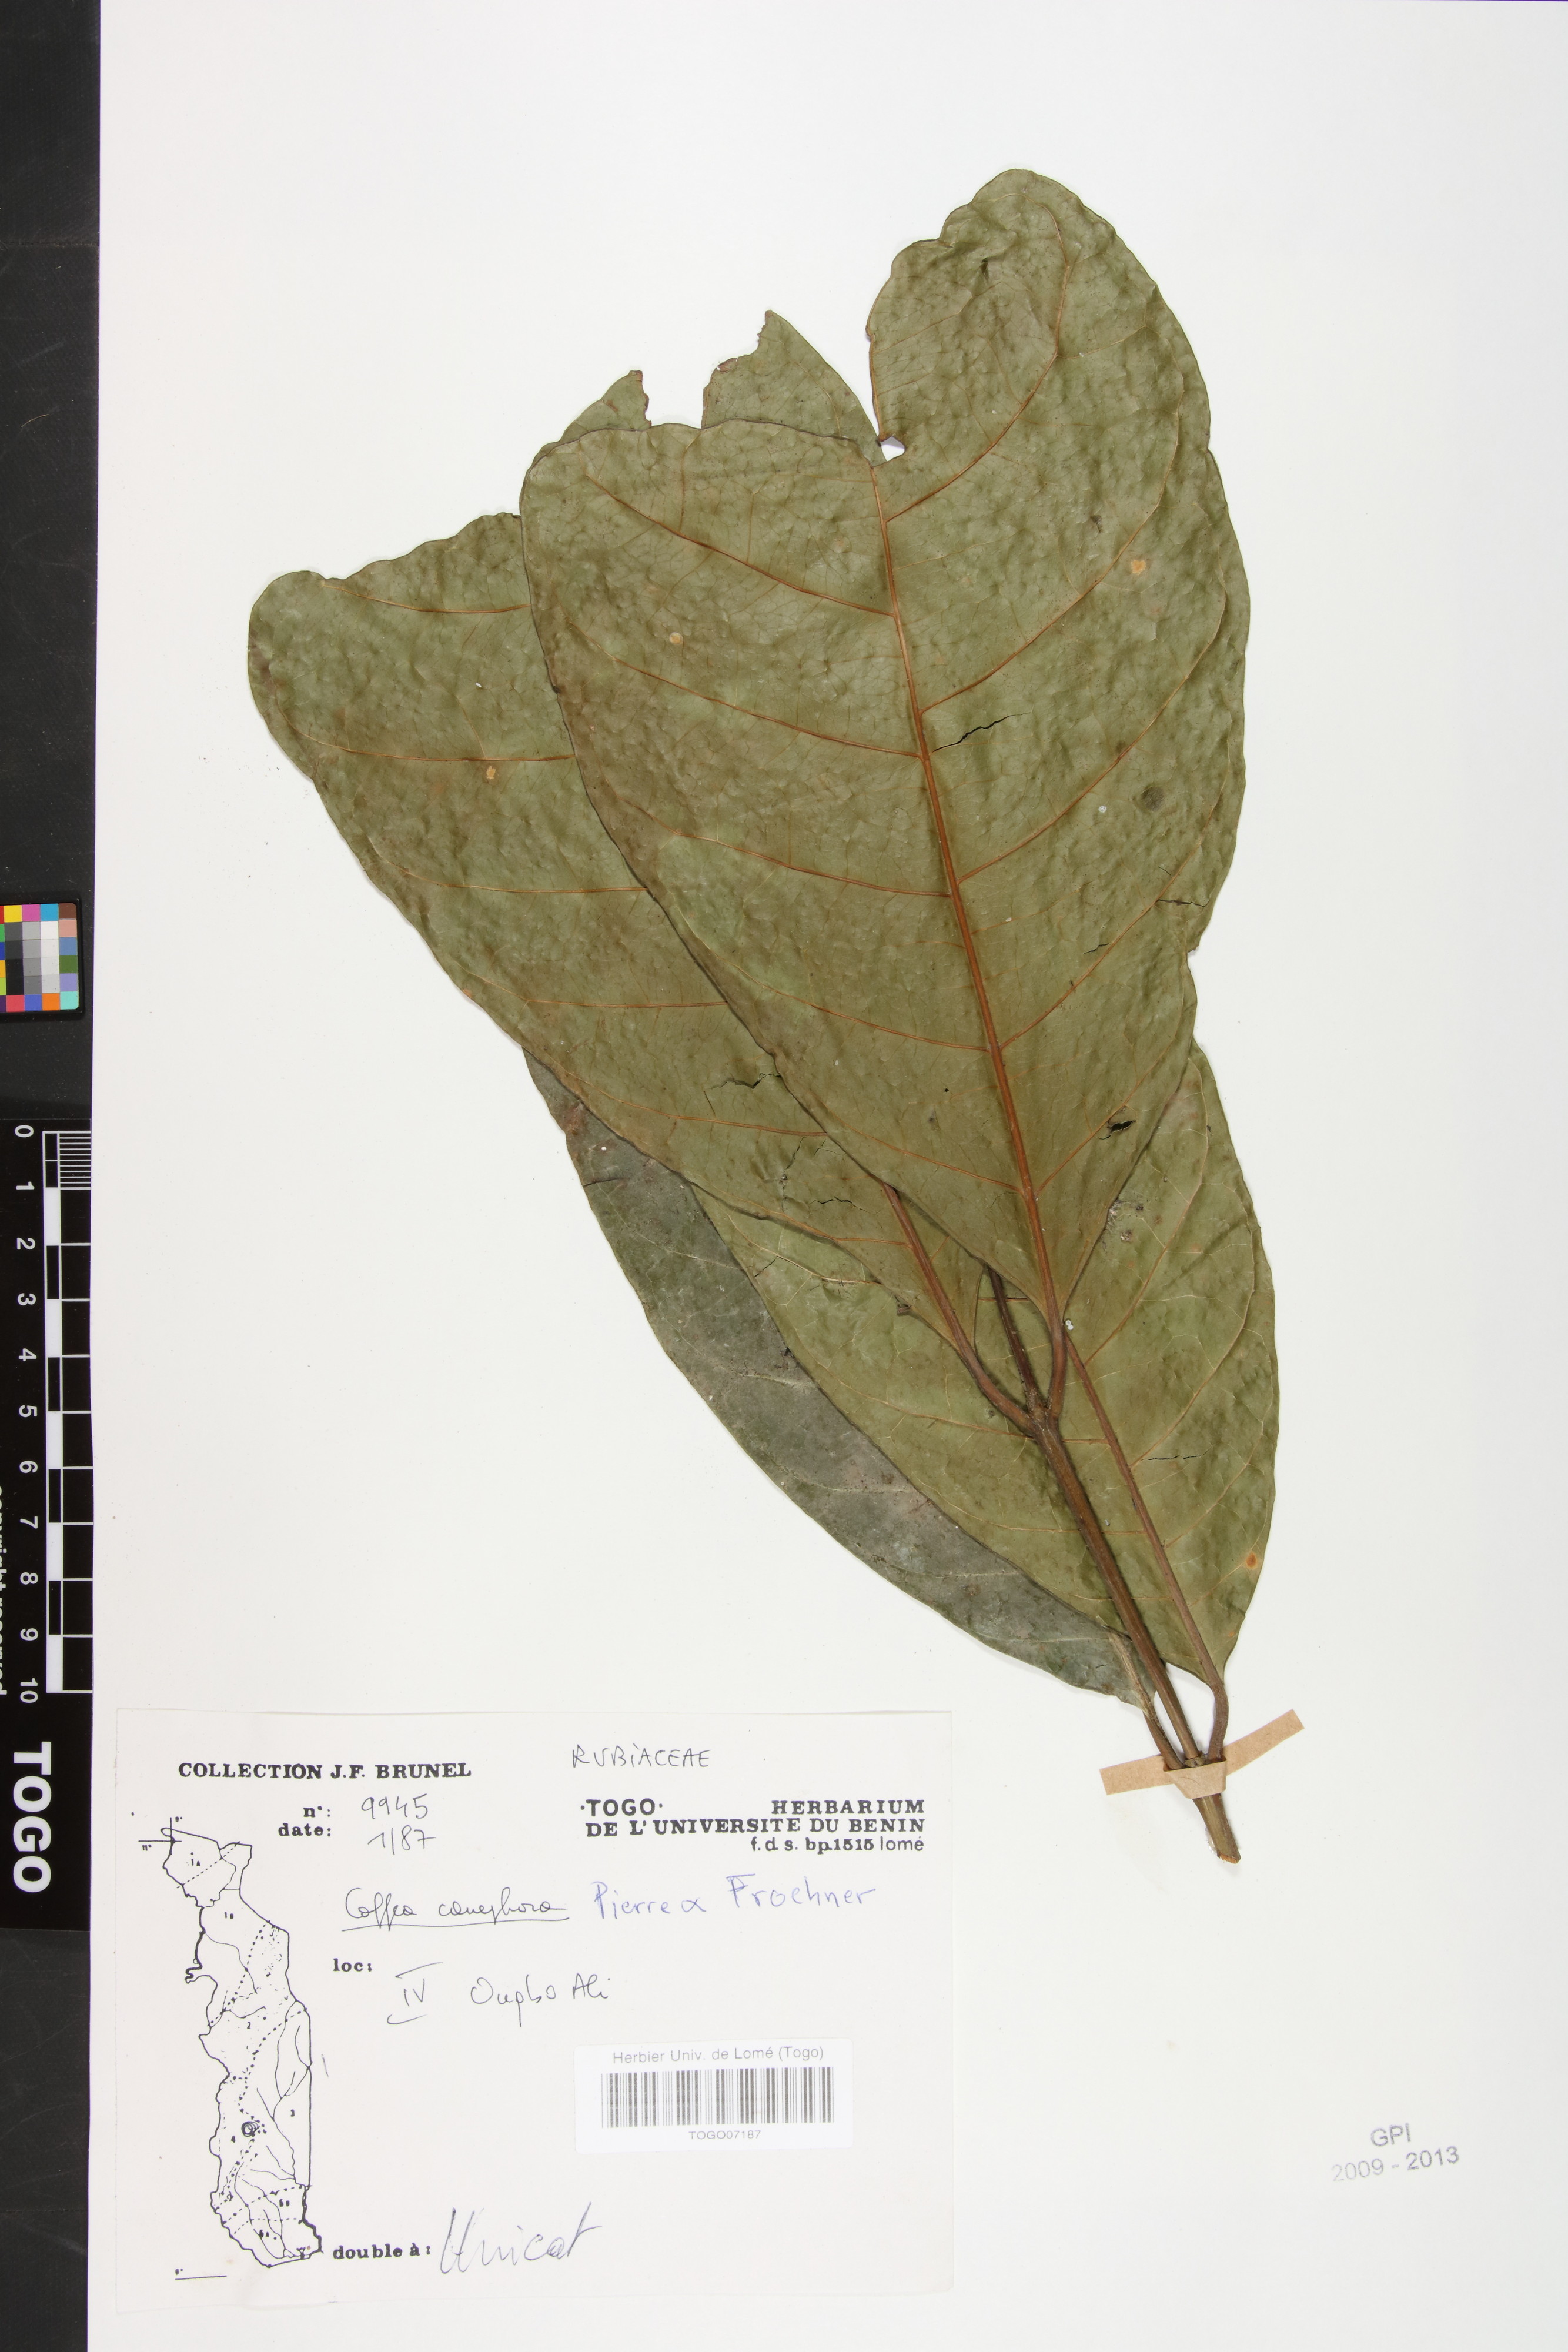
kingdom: Plantae
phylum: Tracheophyta
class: Magnoliopsida
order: Gentianales
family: Rubiaceae
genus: Coffea
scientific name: Coffea canephora
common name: Robusta coffee
